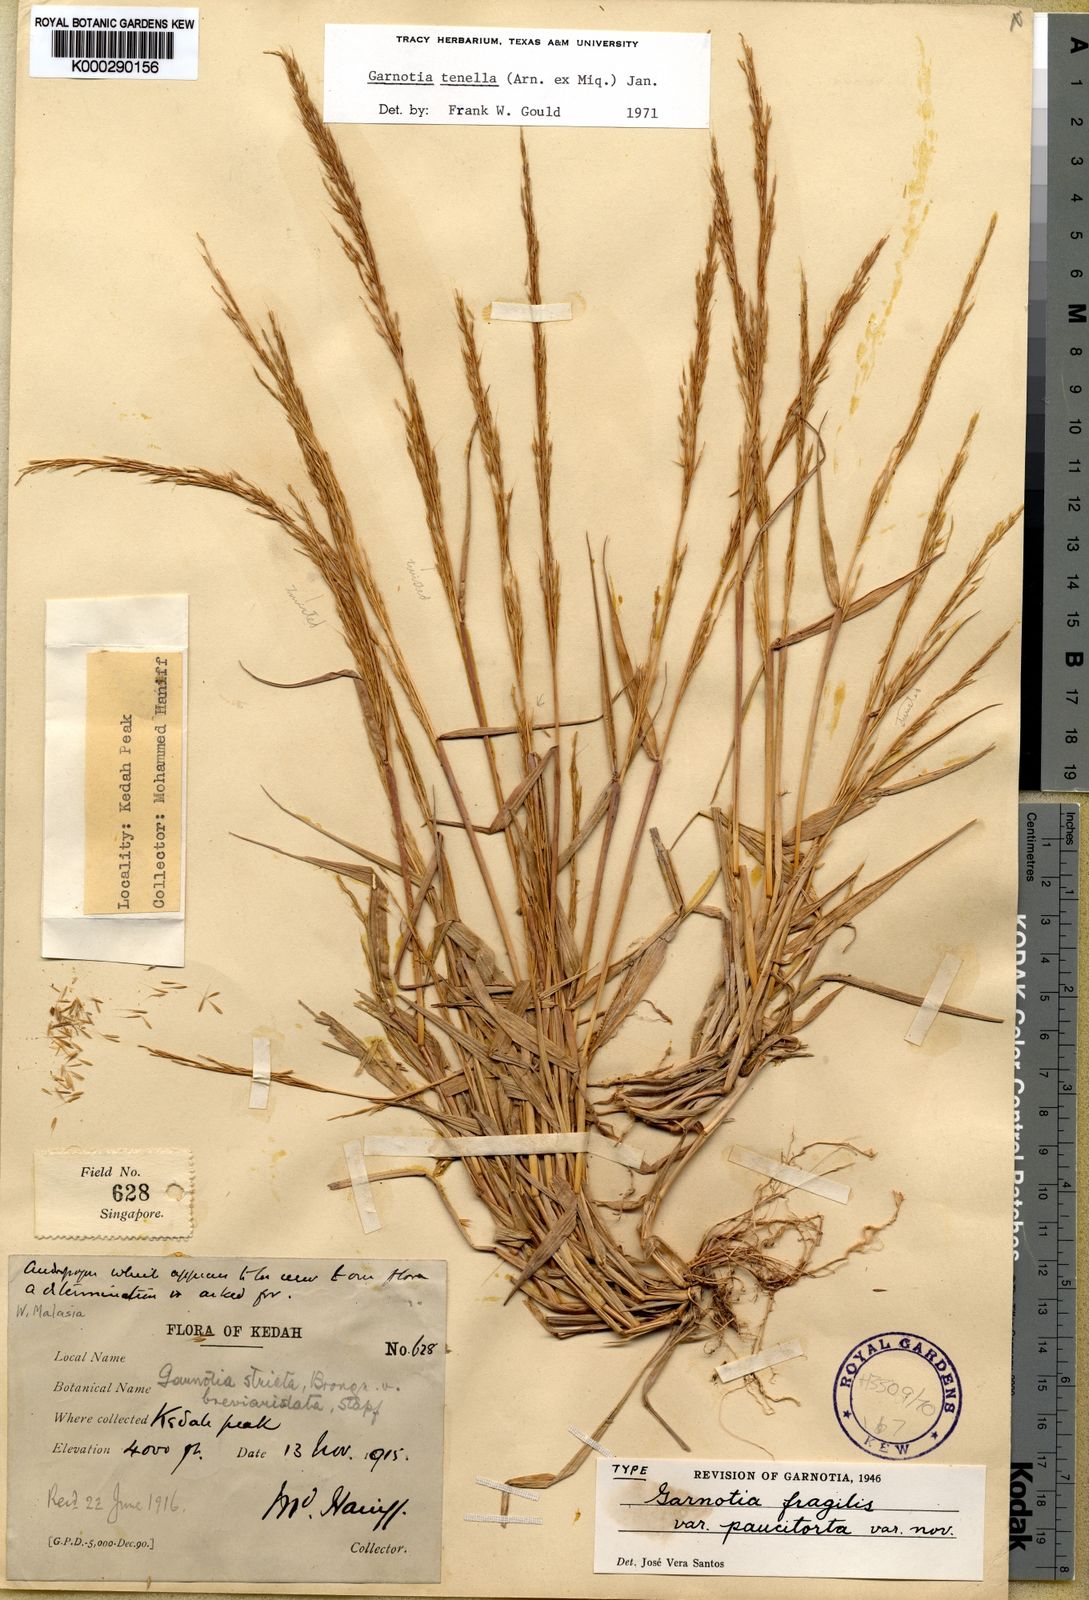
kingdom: Plantae
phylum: Tracheophyta
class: Liliopsida
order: Poales
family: Poaceae
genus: Garnotia
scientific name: Garnotia tenella
